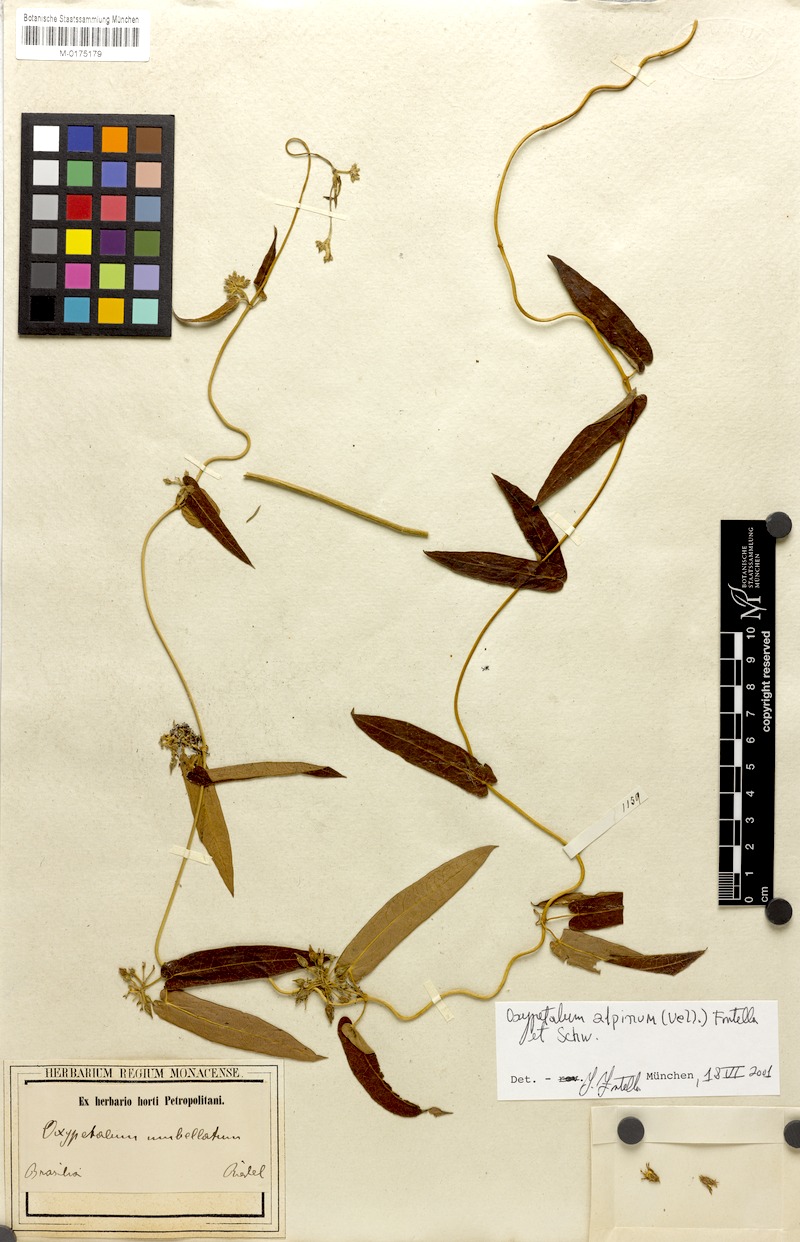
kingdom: Plantae
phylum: Tracheophyta
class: Magnoliopsida
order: Gentianales
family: Apocynaceae
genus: Oxypetalum
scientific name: Oxypetalum alpinum
